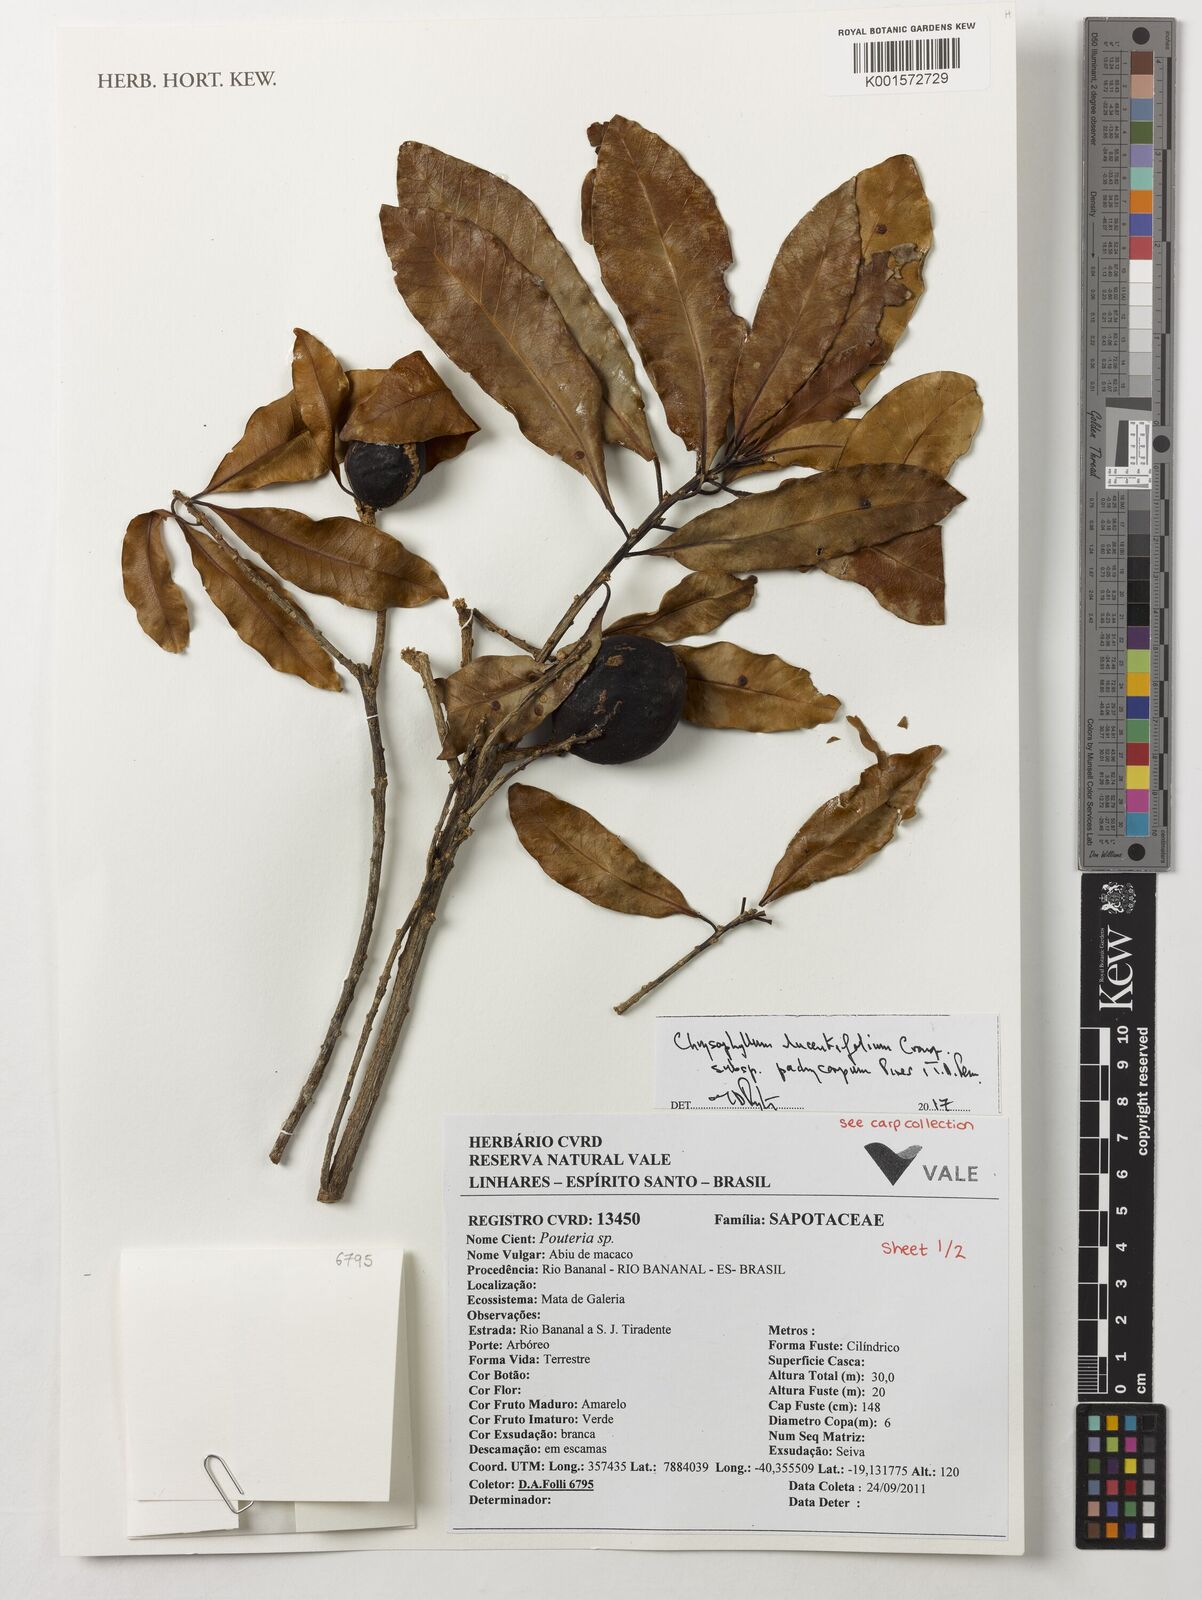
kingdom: Plantae
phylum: Tracheophyta
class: Magnoliopsida
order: Ericales
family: Sapotaceae
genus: Chrysophyllum
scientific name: Chrysophyllum lucentifolium
